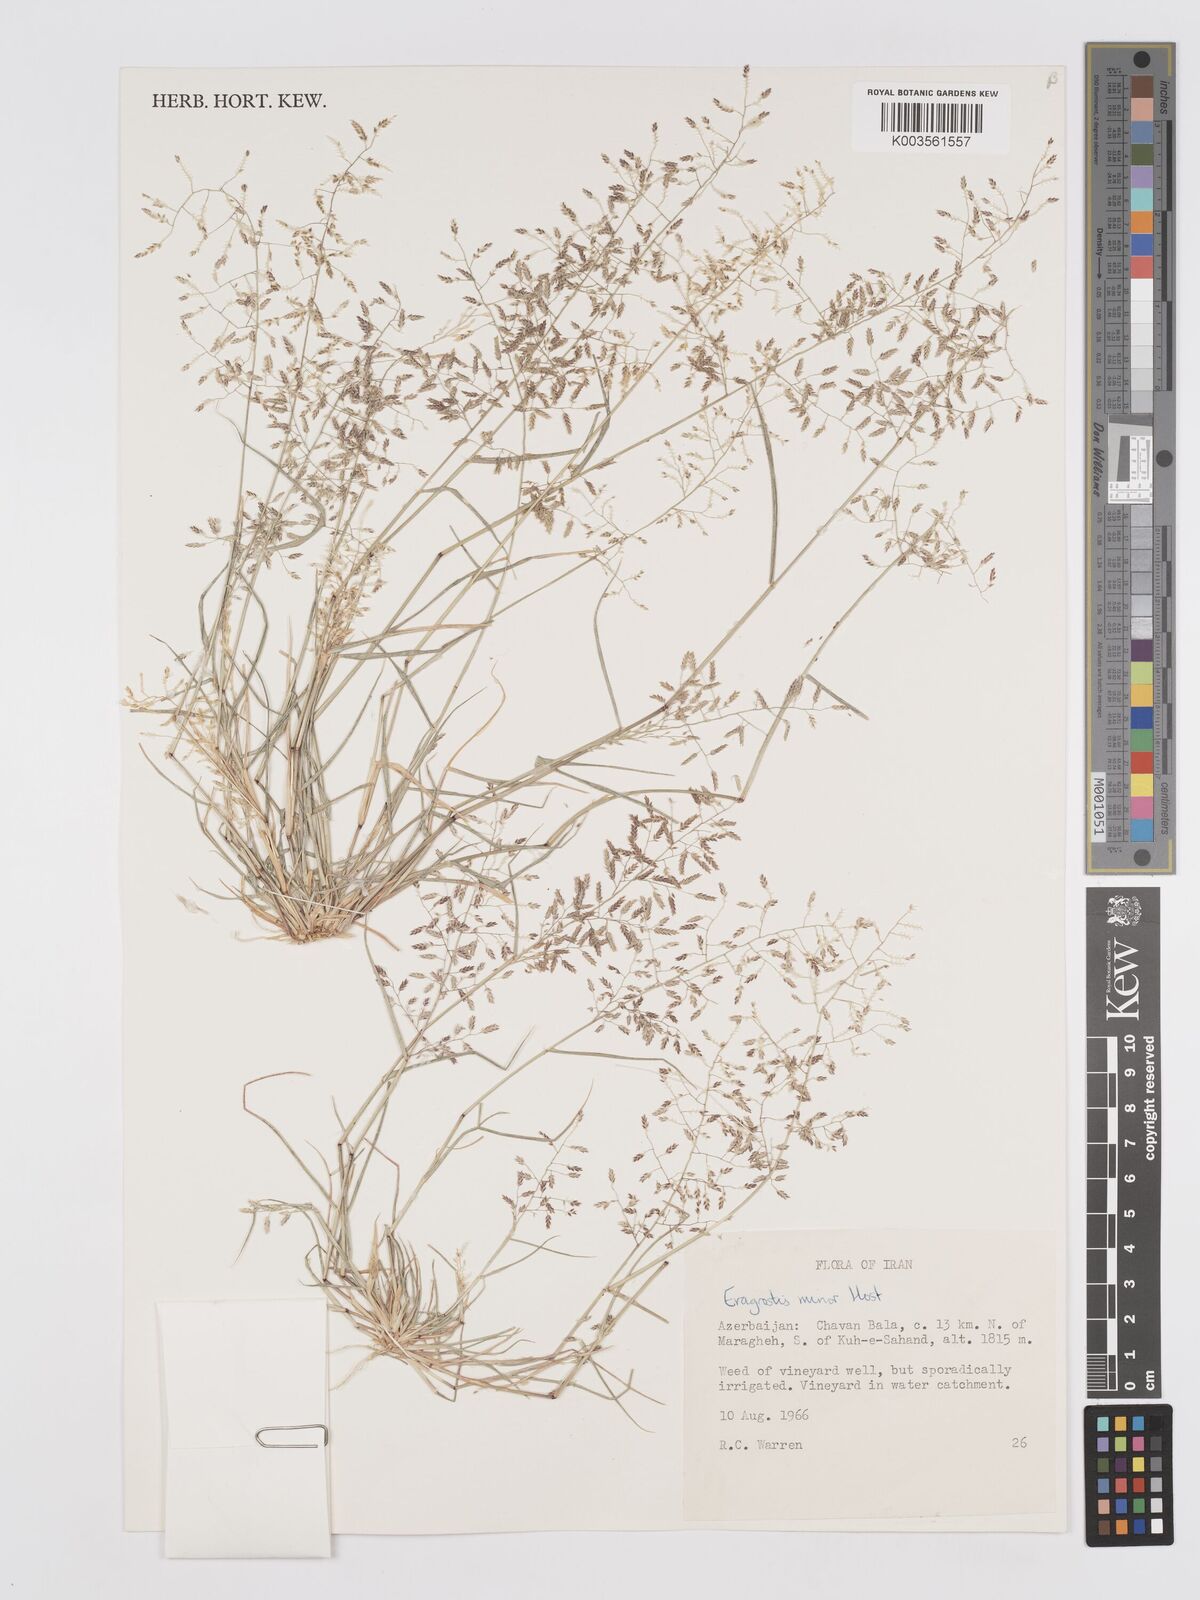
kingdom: Plantae
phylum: Tracheophyta
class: Liliopsida
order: Poales
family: Poaceae
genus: Eragrostis
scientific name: Eragrostis minor
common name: Small love-grass
